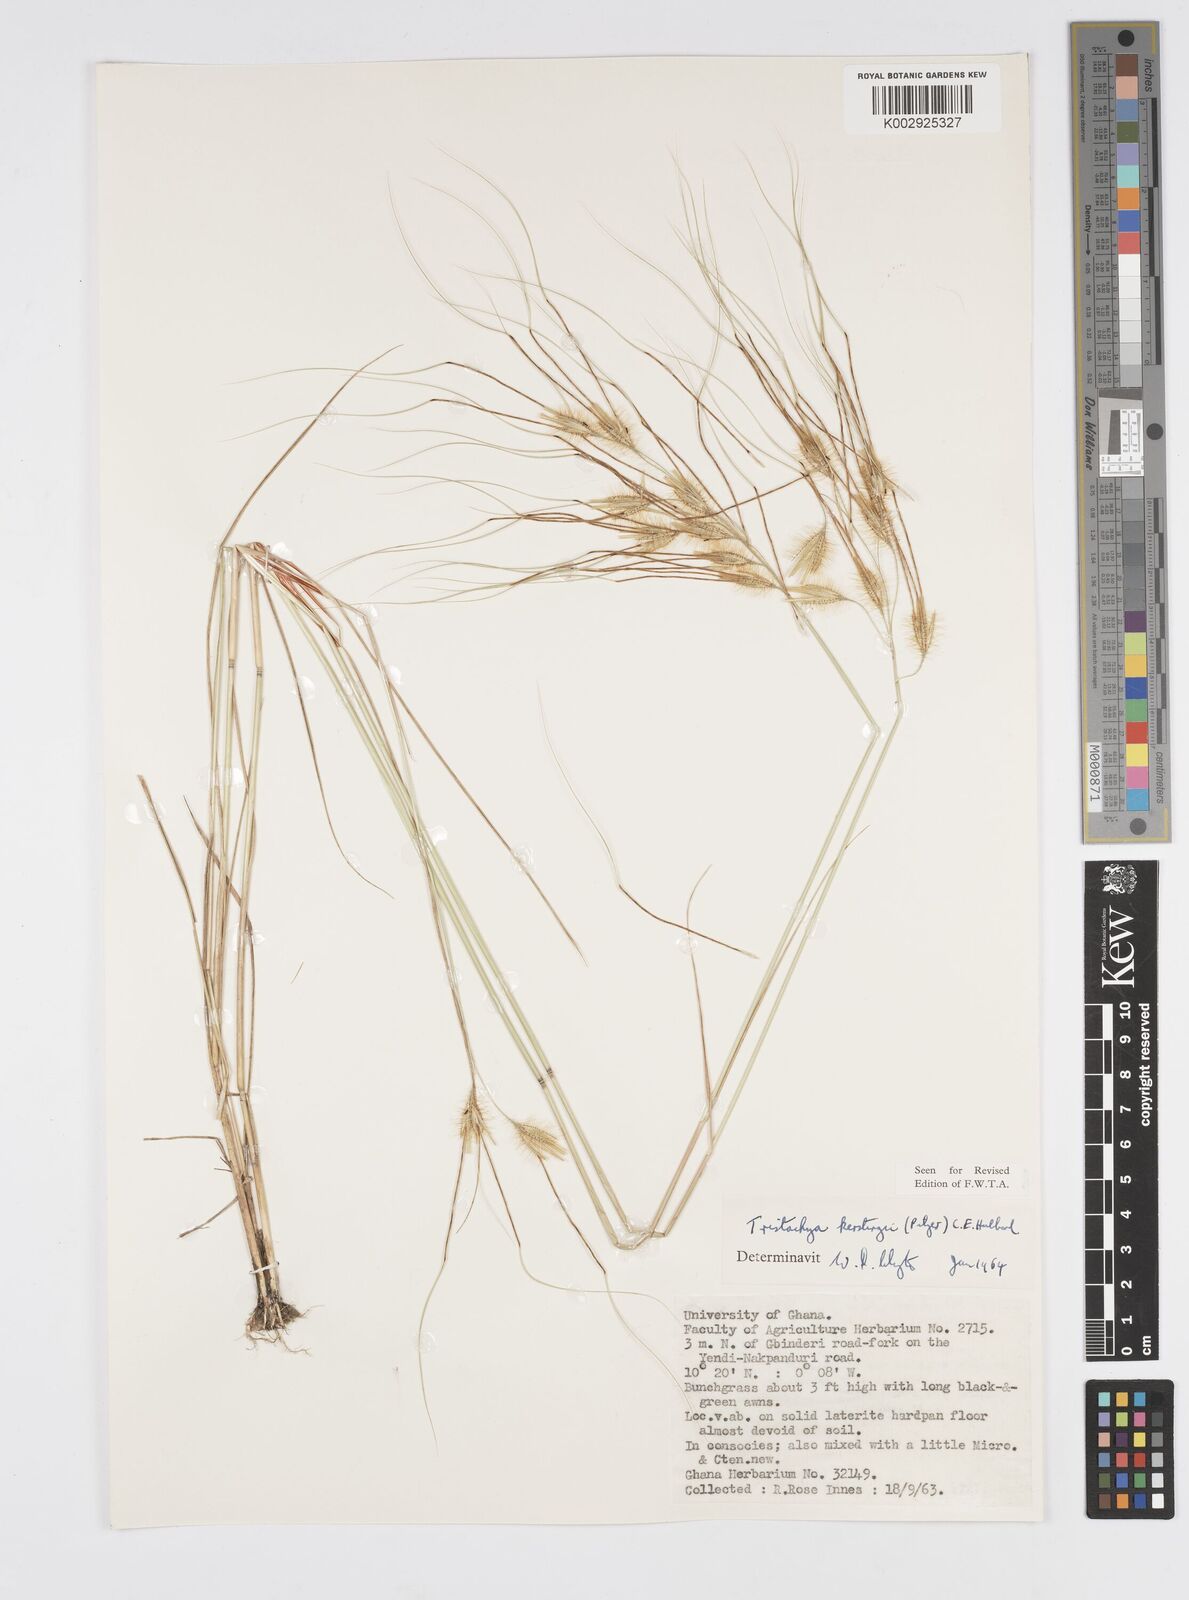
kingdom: Plantae
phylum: Tracheophyta
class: Liliopsida
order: Poales
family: Poaceae
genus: Loudetiopsis
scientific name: Loudetiopsis kerstingii
